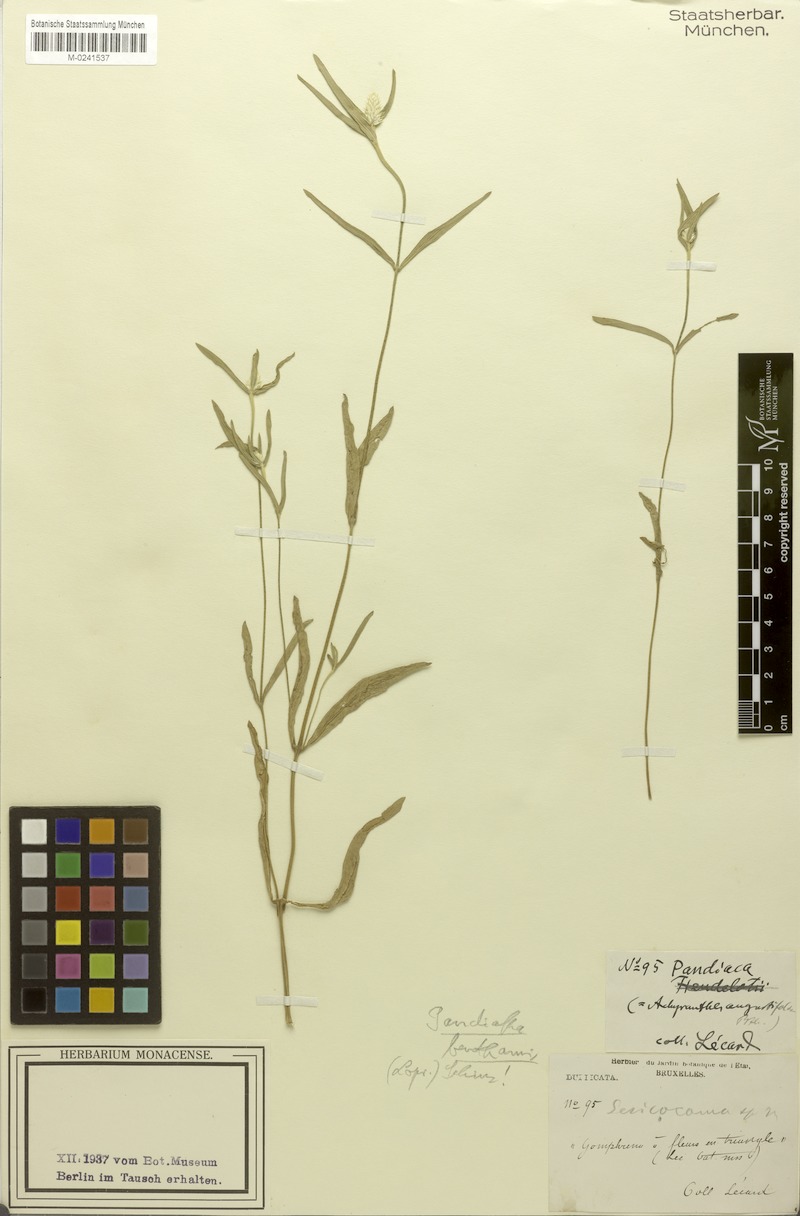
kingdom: Plantae
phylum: Tracheophyta
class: Magnoliopsida
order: Caryophyllales
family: Amaranthaceae
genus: Pandiaka
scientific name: Pandiaka angustifolia
